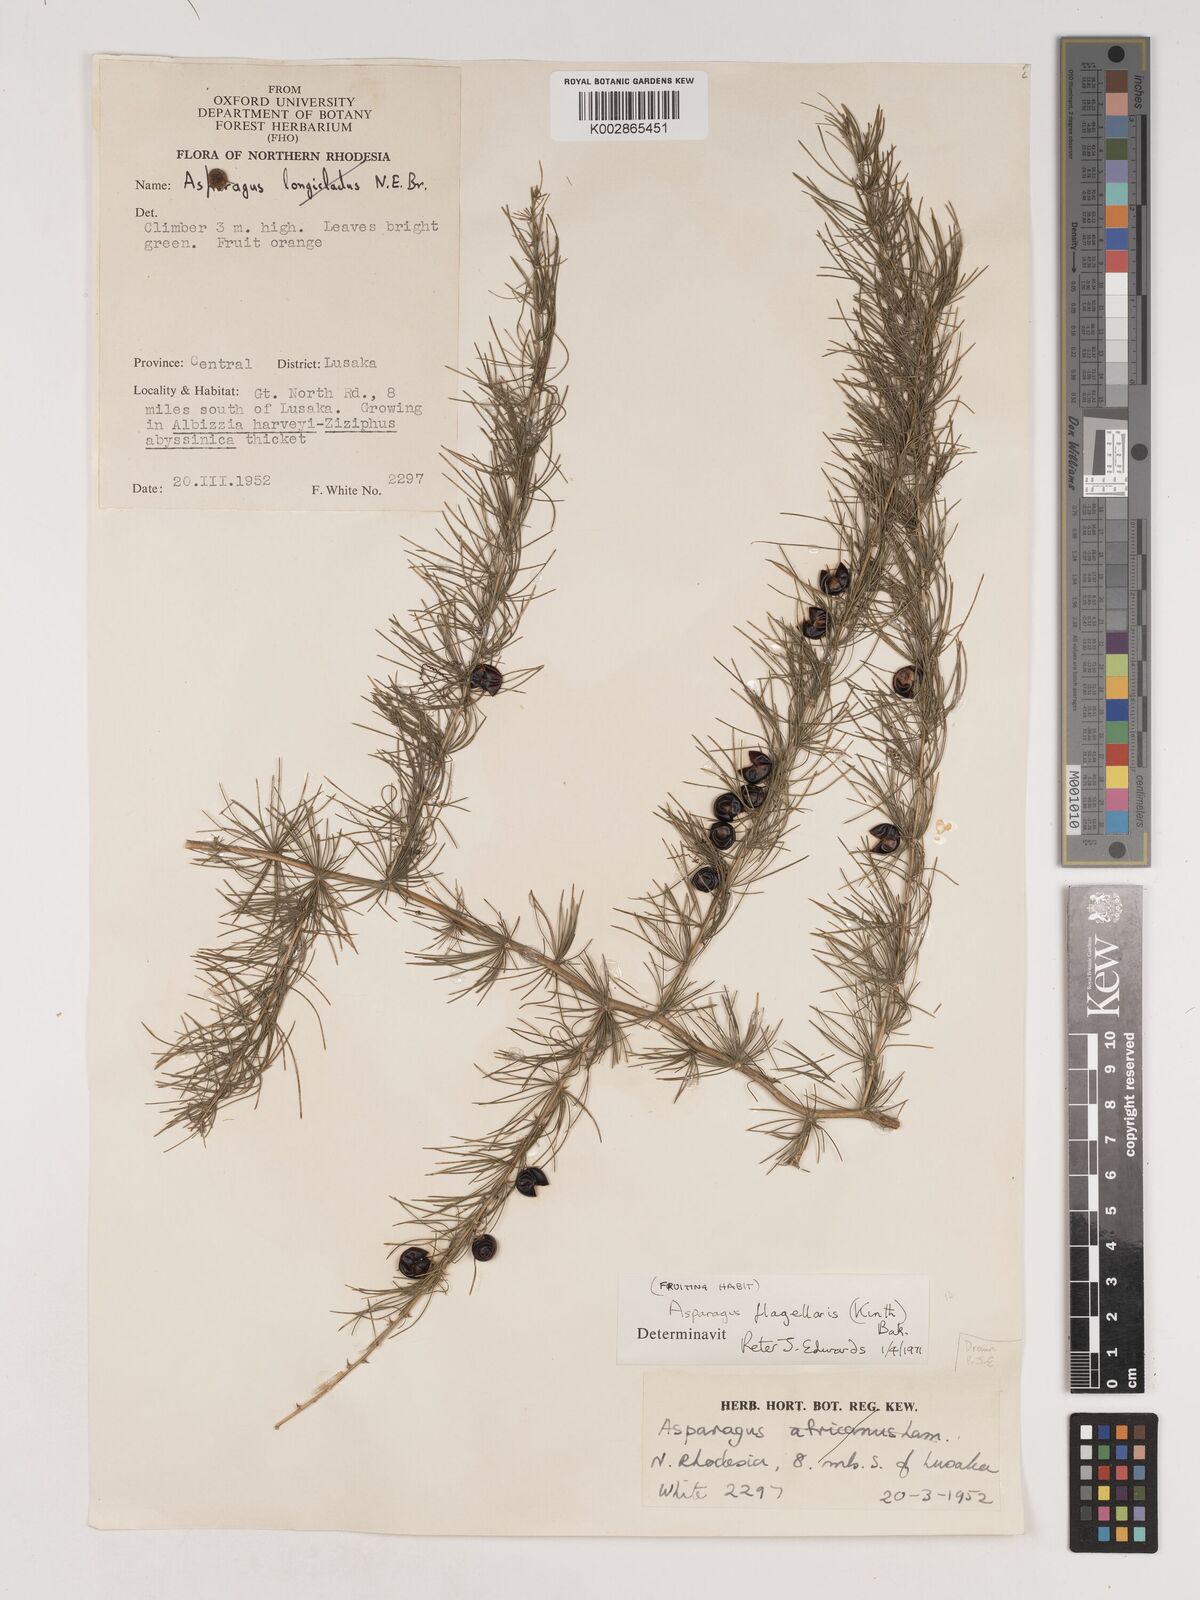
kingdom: Plantae
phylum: Tracheophyta
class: Liliopsida
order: Asparagales
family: Asparagaceae
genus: Asparagus
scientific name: Asparagus flagellaris
